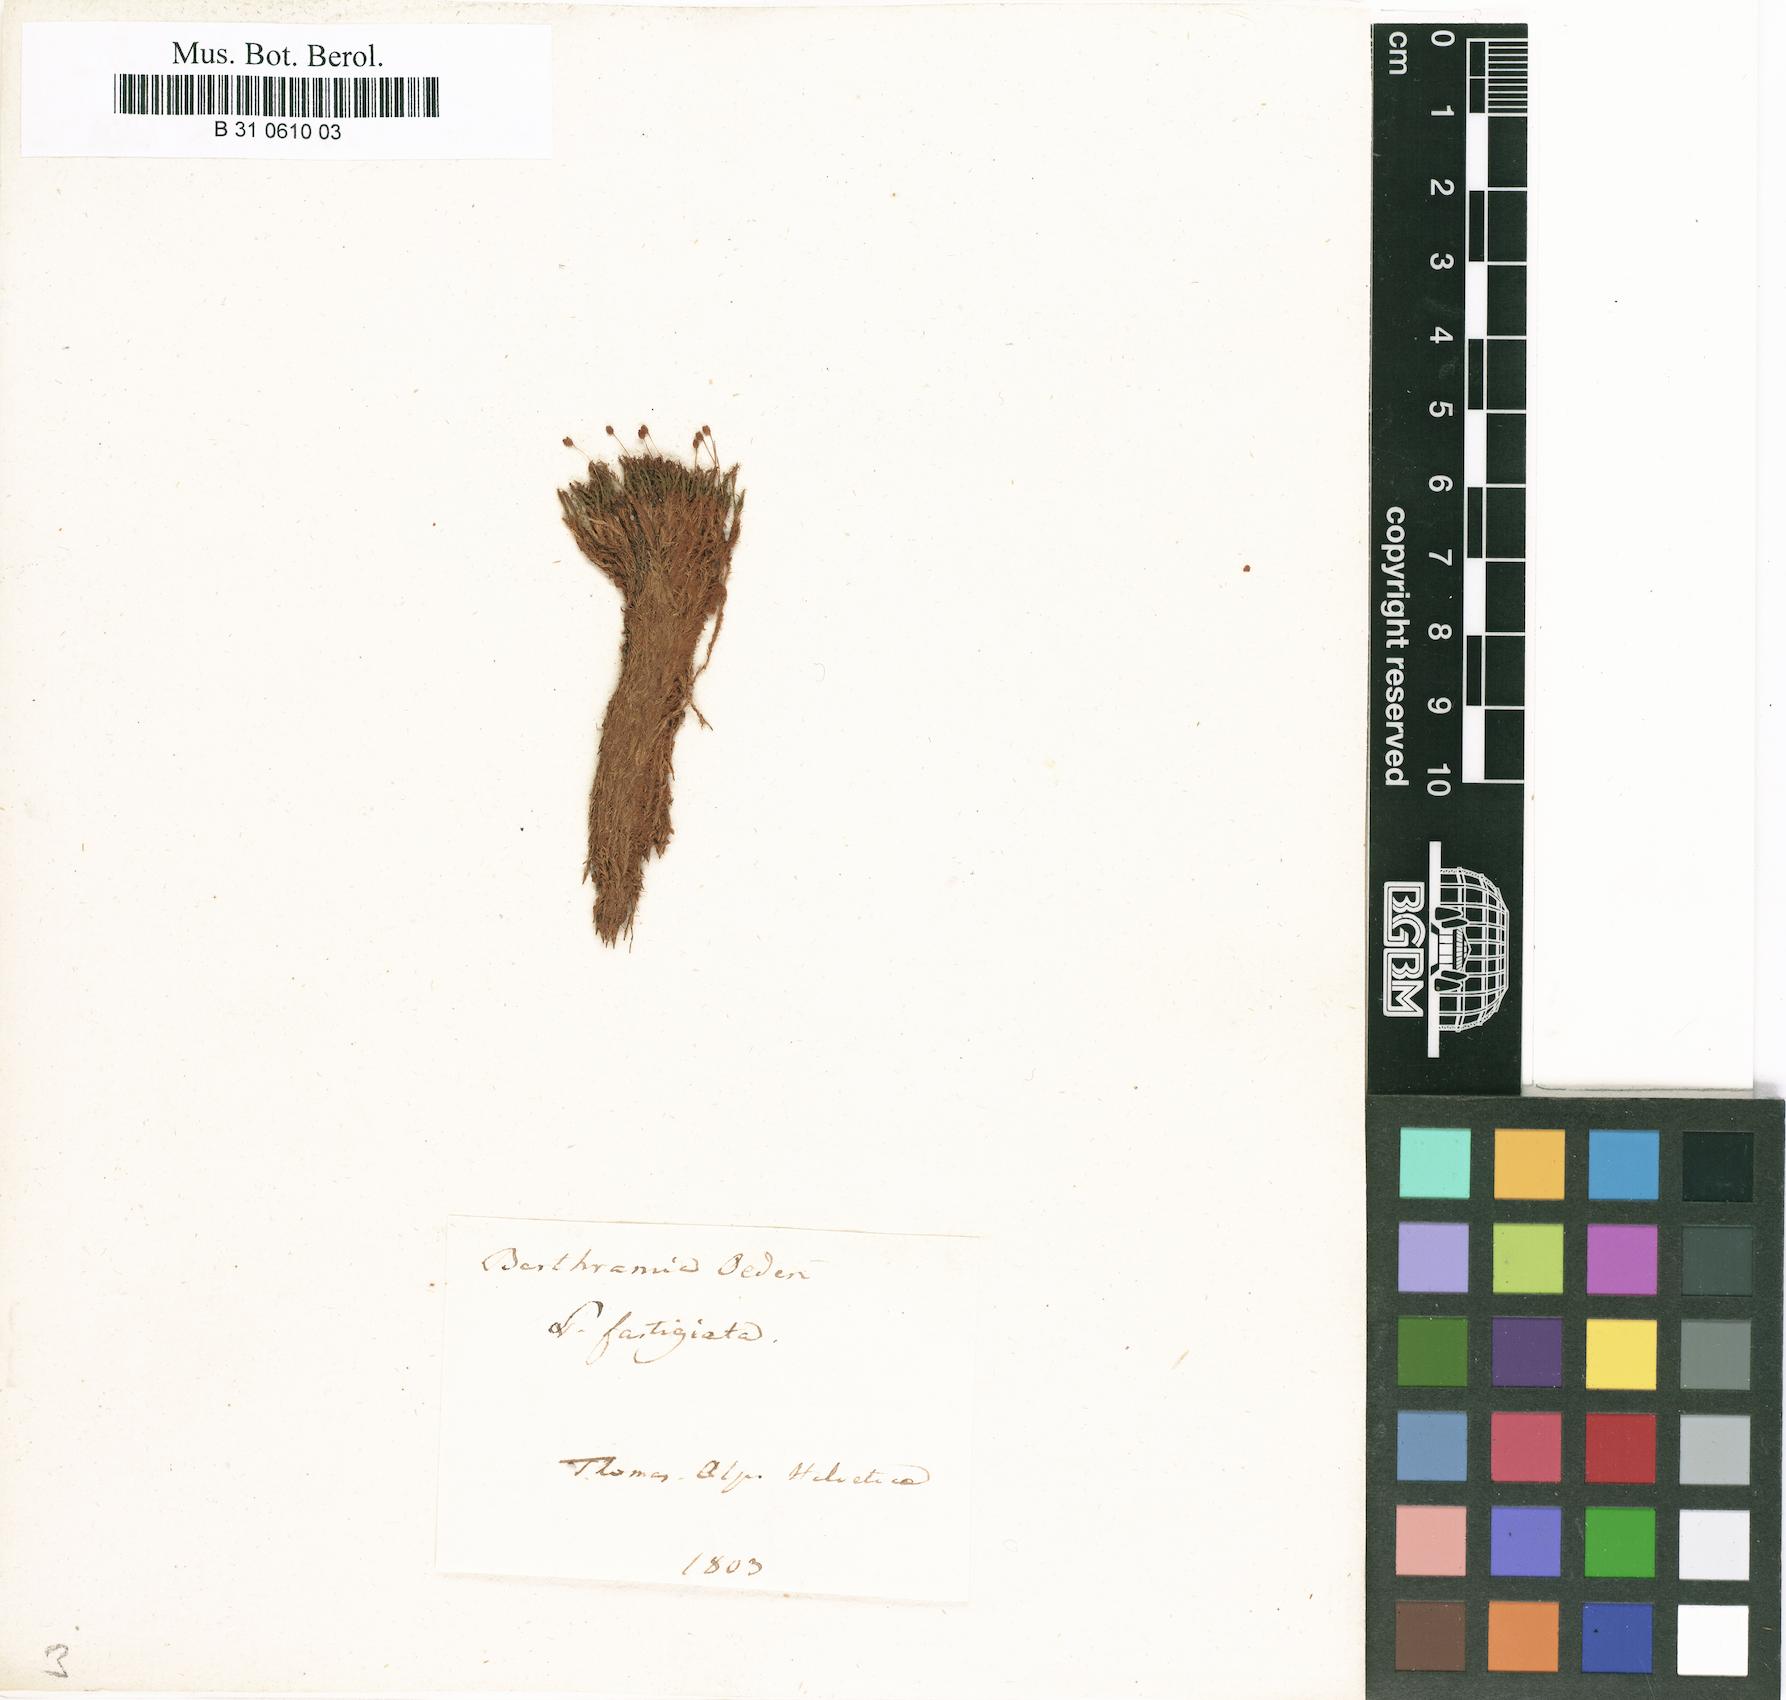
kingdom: Plantae
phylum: Bryophyta
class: Bryopsida
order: Bartramiales
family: Bartramiaceae
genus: Plagiopus
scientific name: Plagiopus oederianus
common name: Oeder's apple moss
